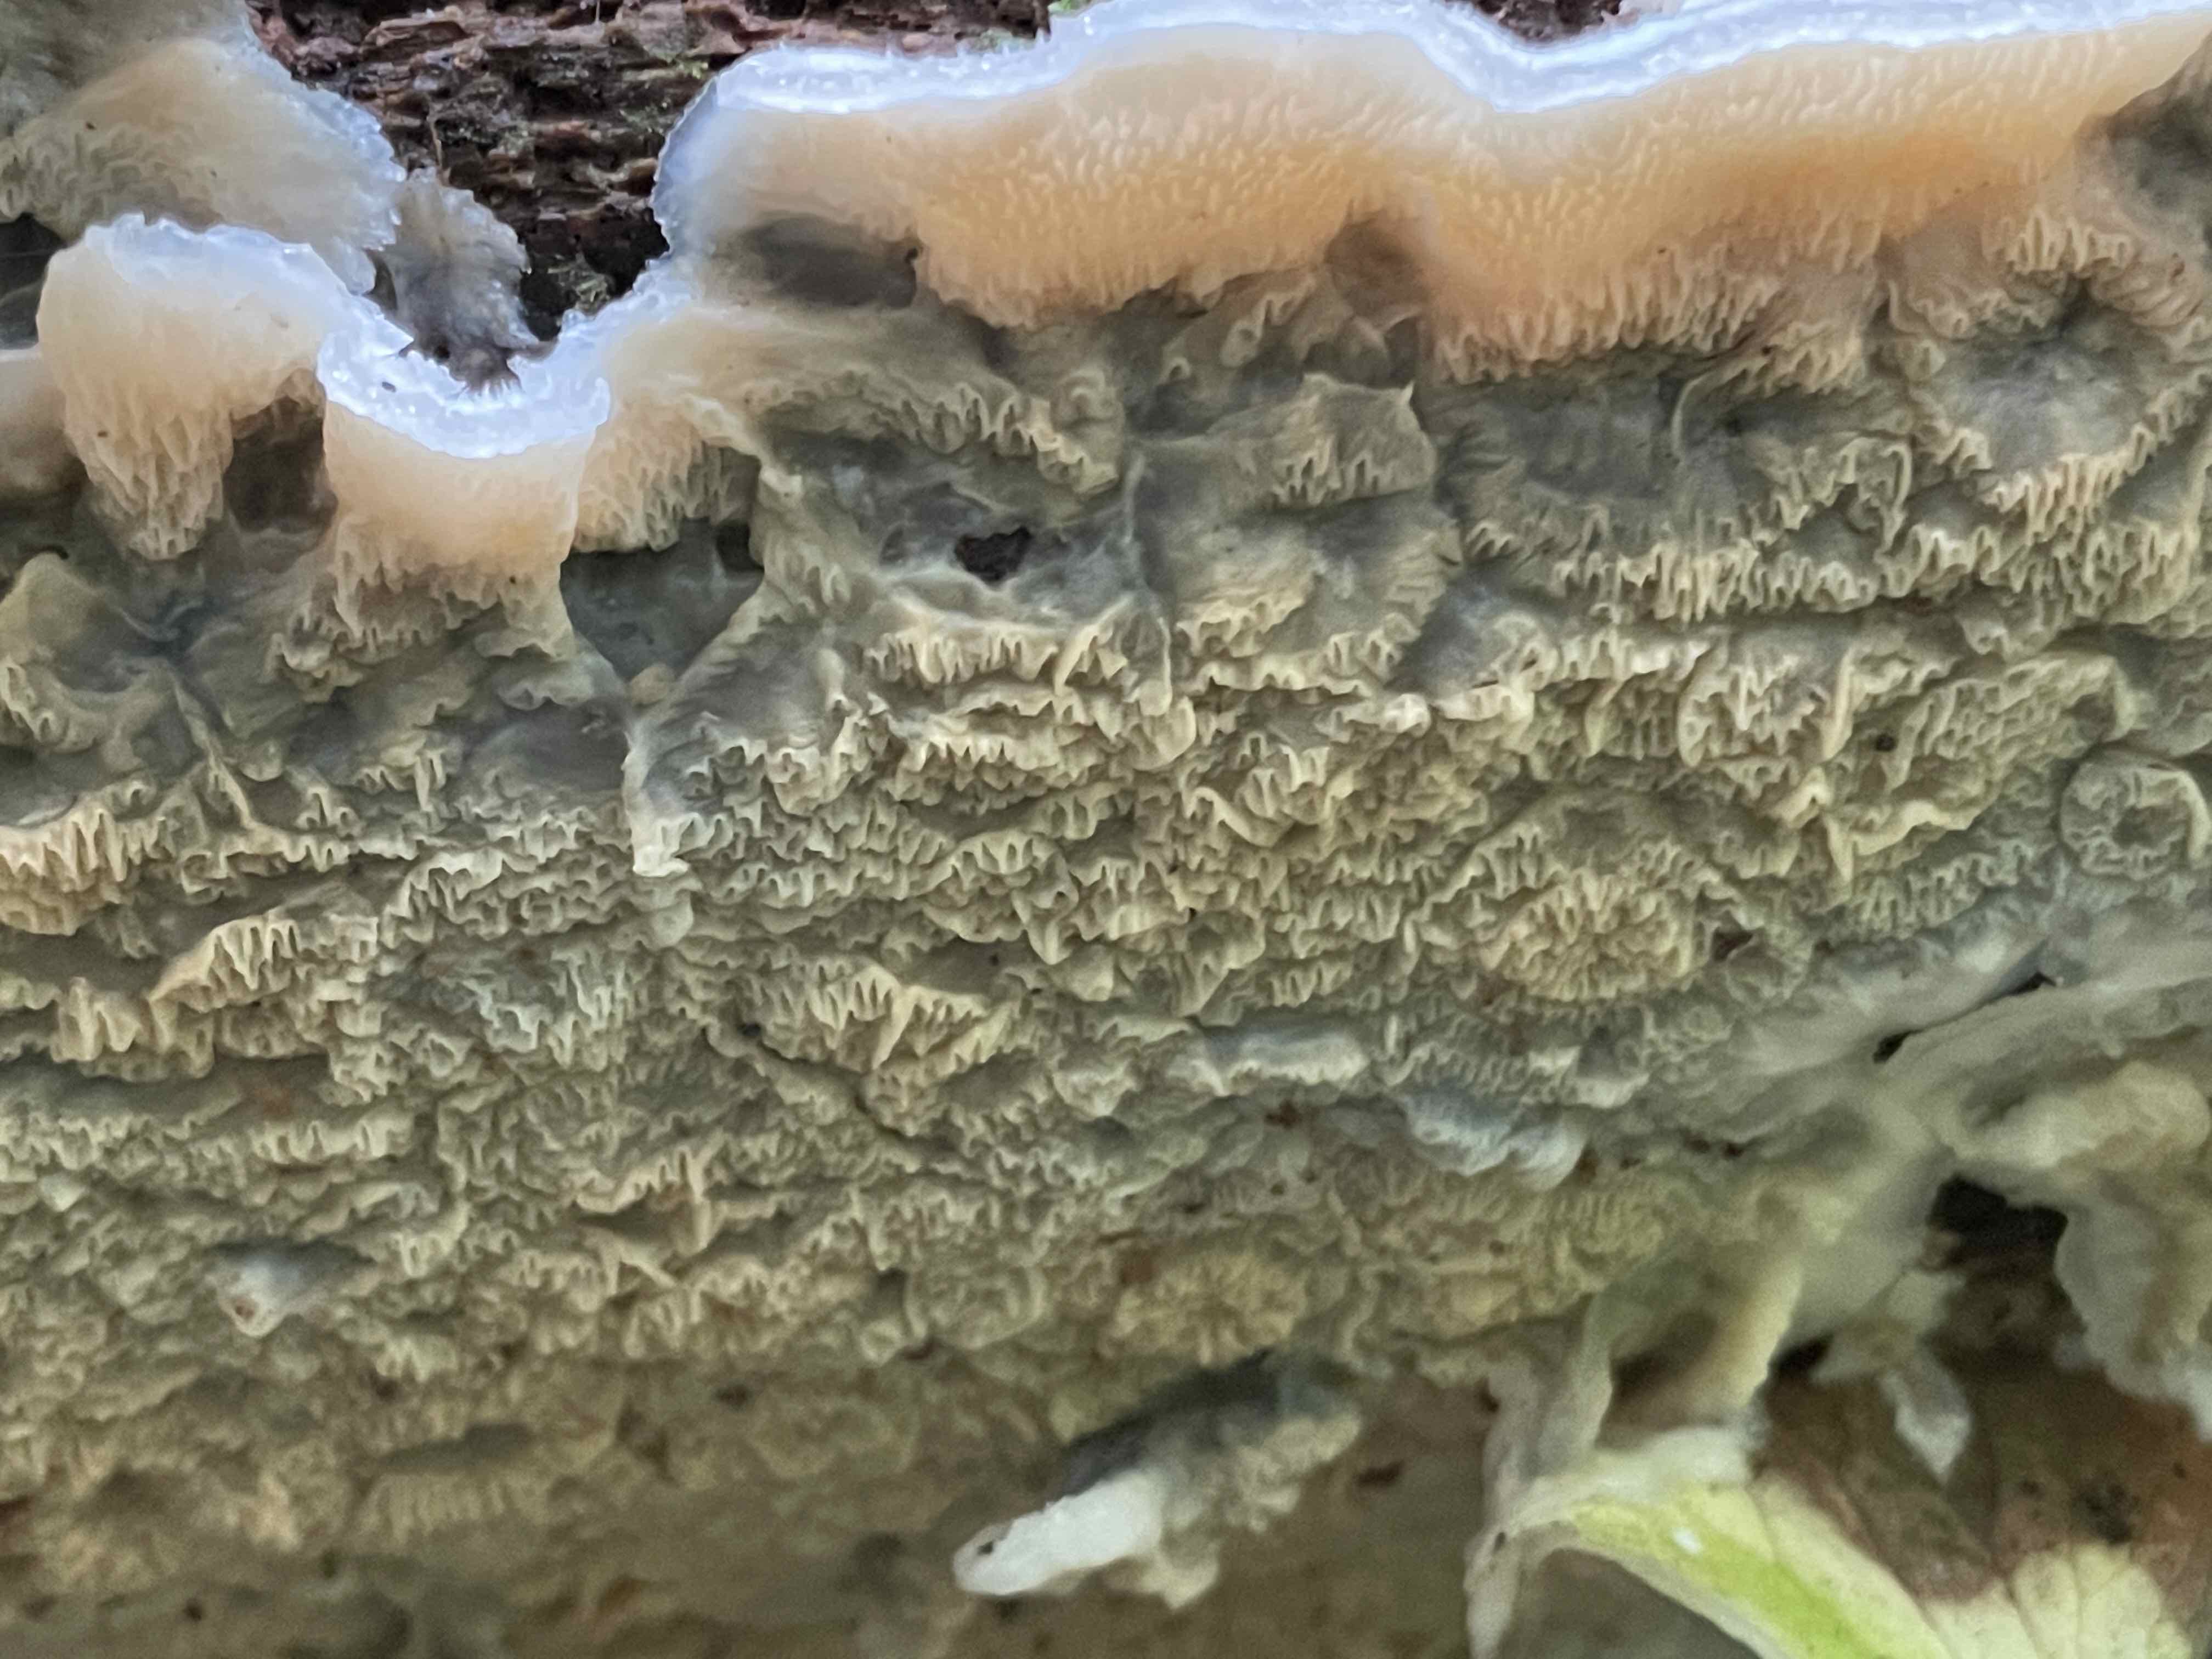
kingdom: Fungi
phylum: Basidiomycota
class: Agaricomycetes
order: Polyporales
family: Meruliaceae
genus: Phlebia
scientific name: Phlebia tremellosa
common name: bævrende åresvamp
